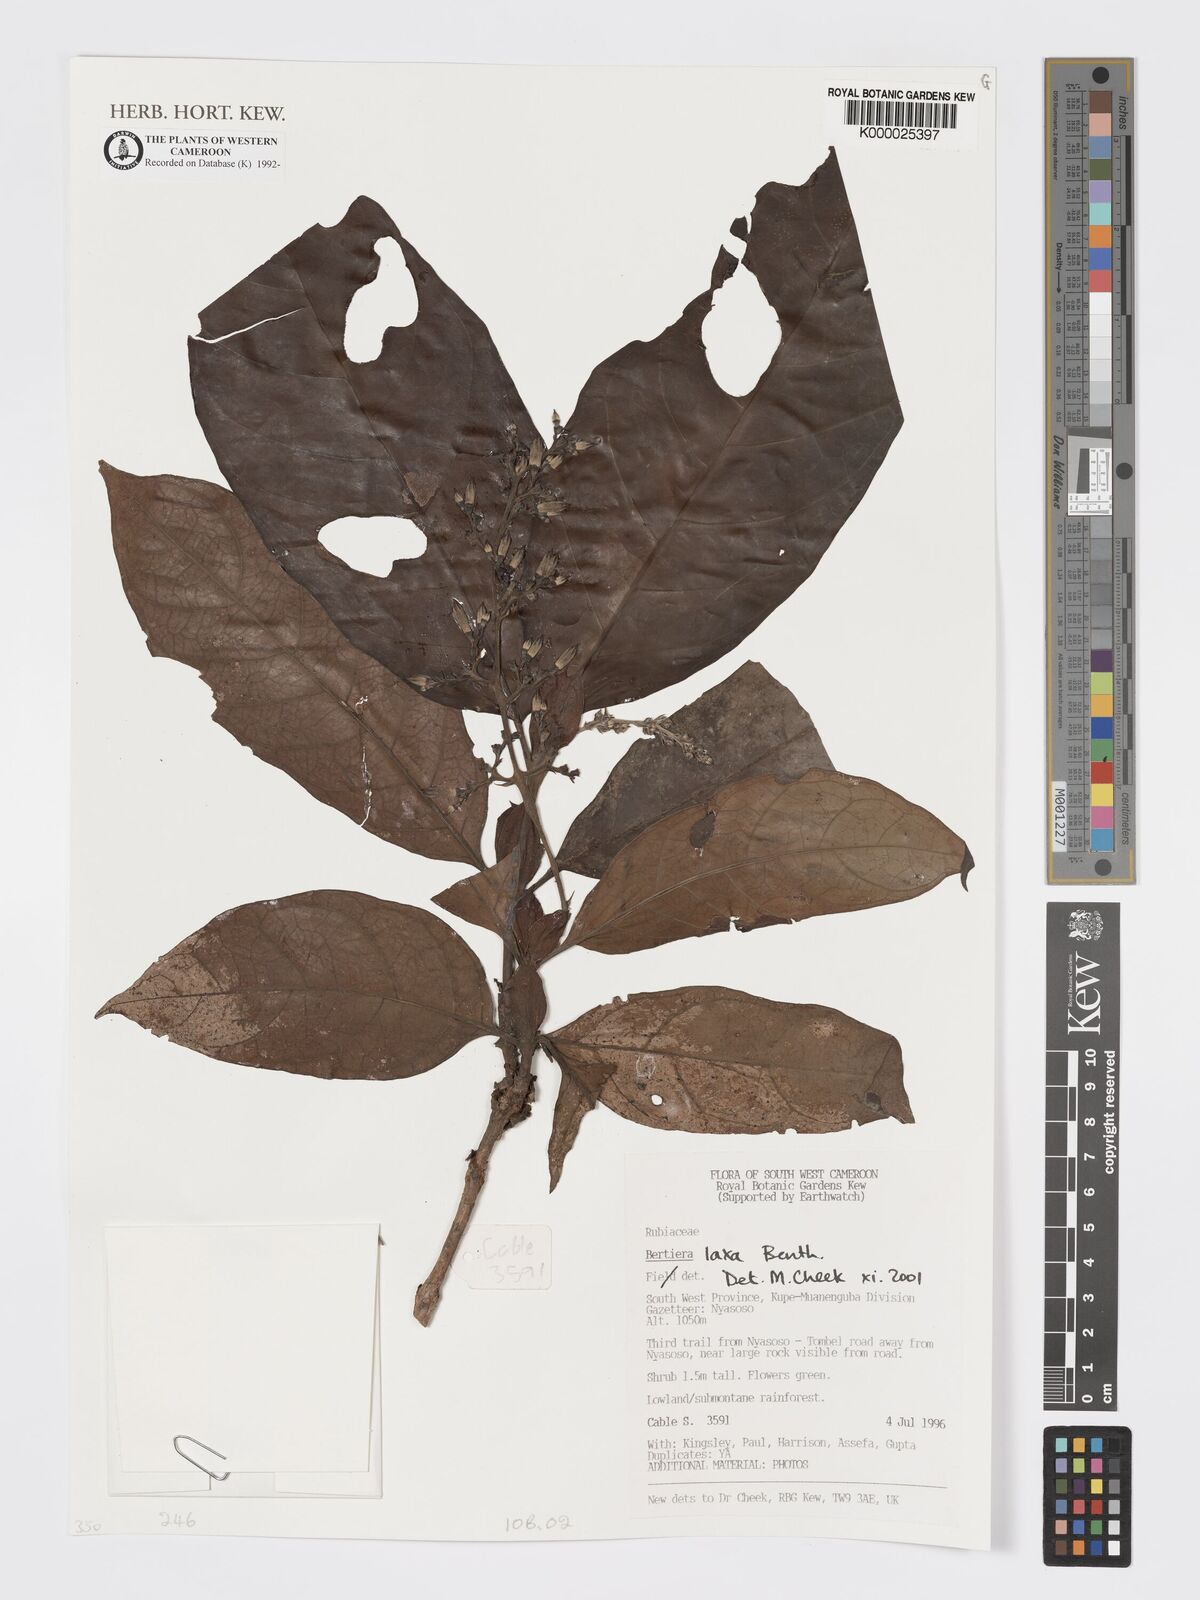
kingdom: Plantae
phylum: Tracheophyta
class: Magnoliopsida
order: Gentianales
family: Rubiaceae
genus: Bertiera
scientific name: Bertiera laxa
